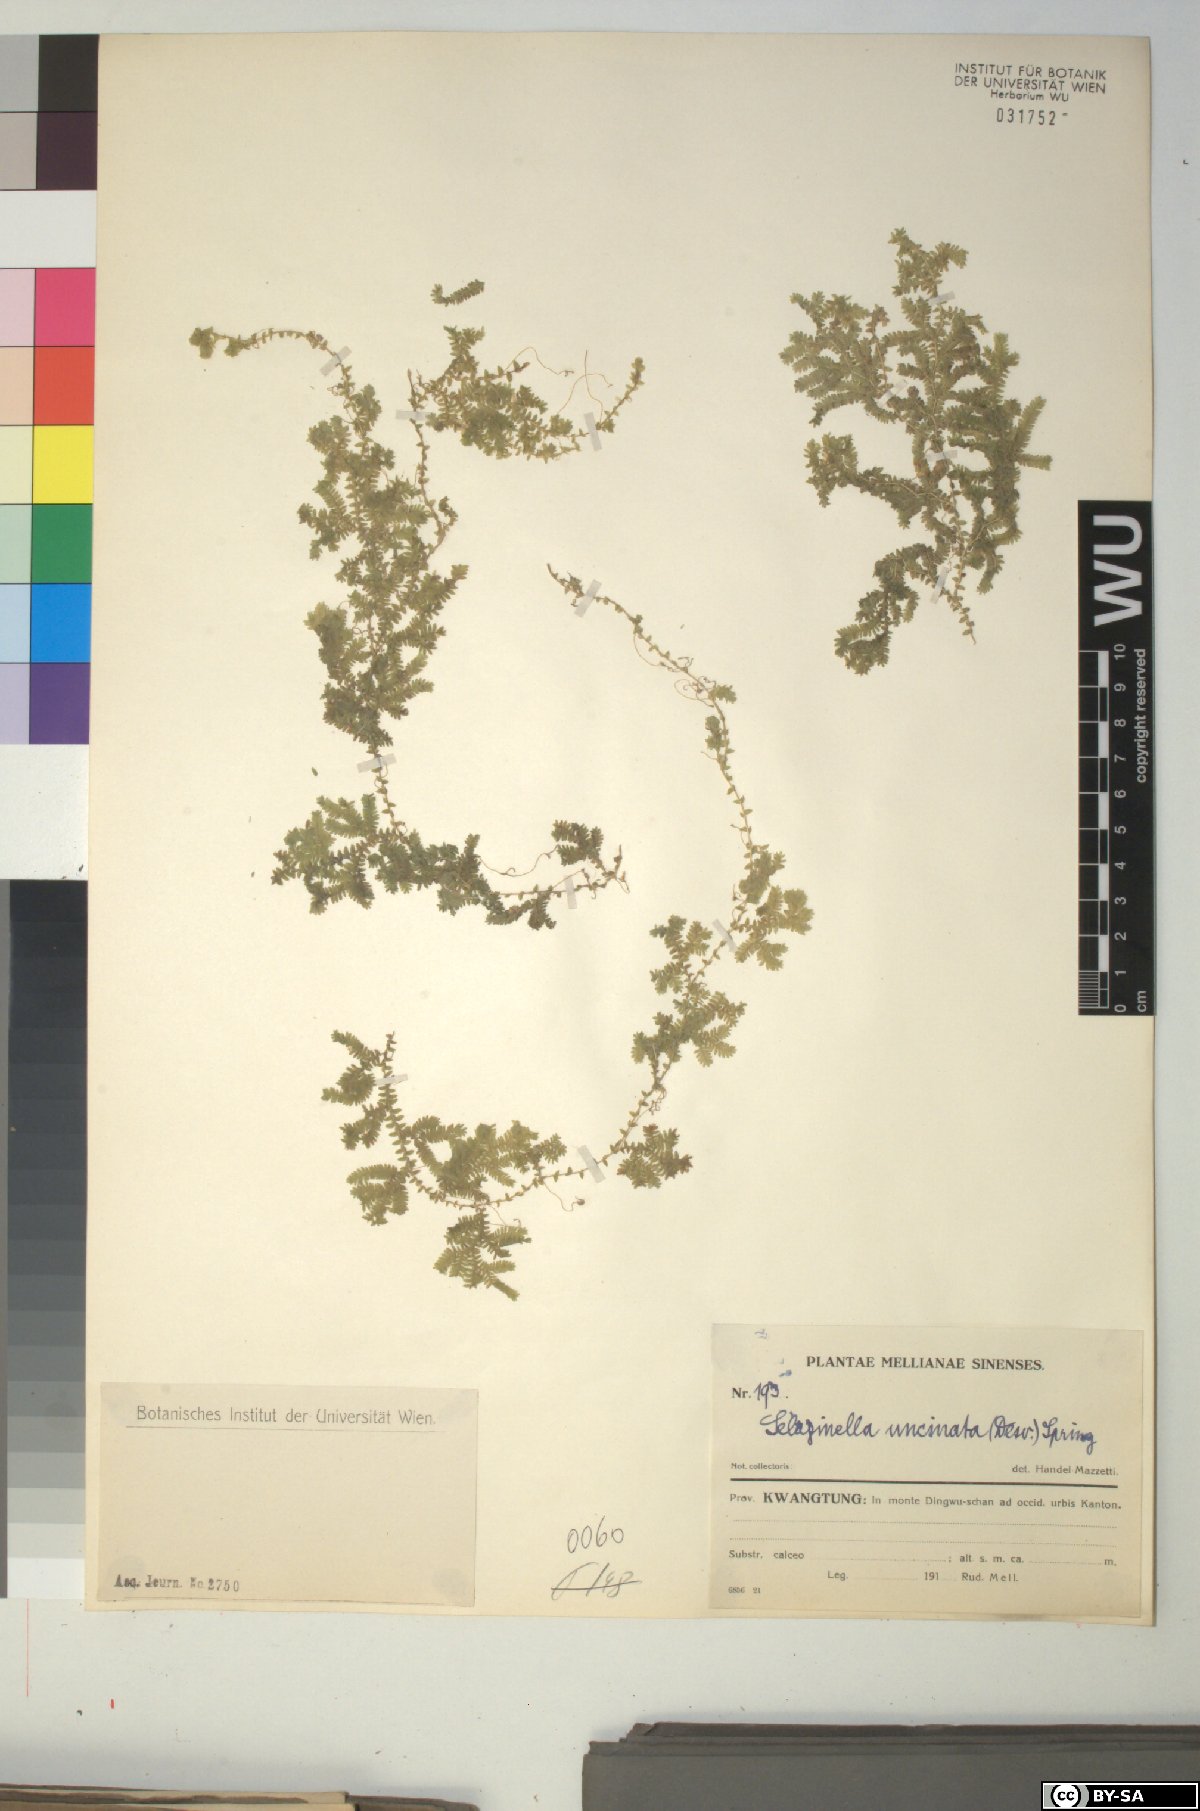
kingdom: Plantae
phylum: Tracheophyta
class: Lycopodiopsida
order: Selaginellales
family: Selaginellaceae
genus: Selaginella
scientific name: Selaginella uncinata
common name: Blue spikemoss
